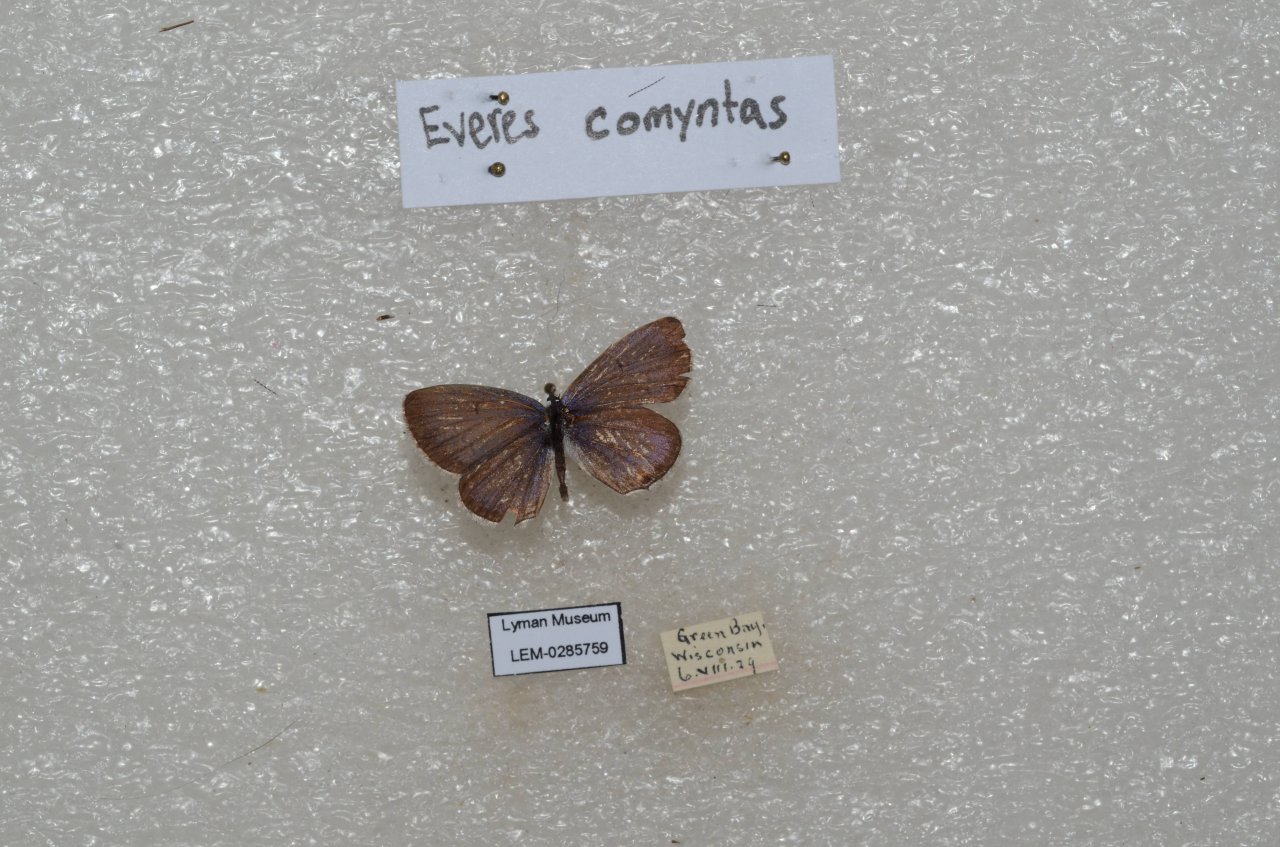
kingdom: Animalia
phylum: Arthropoda
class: Insecta
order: Lepidoptera
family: Lycaenidae
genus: Elkalyce
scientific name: Elkalyce comyntas
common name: Eastern Tailed-Blue
